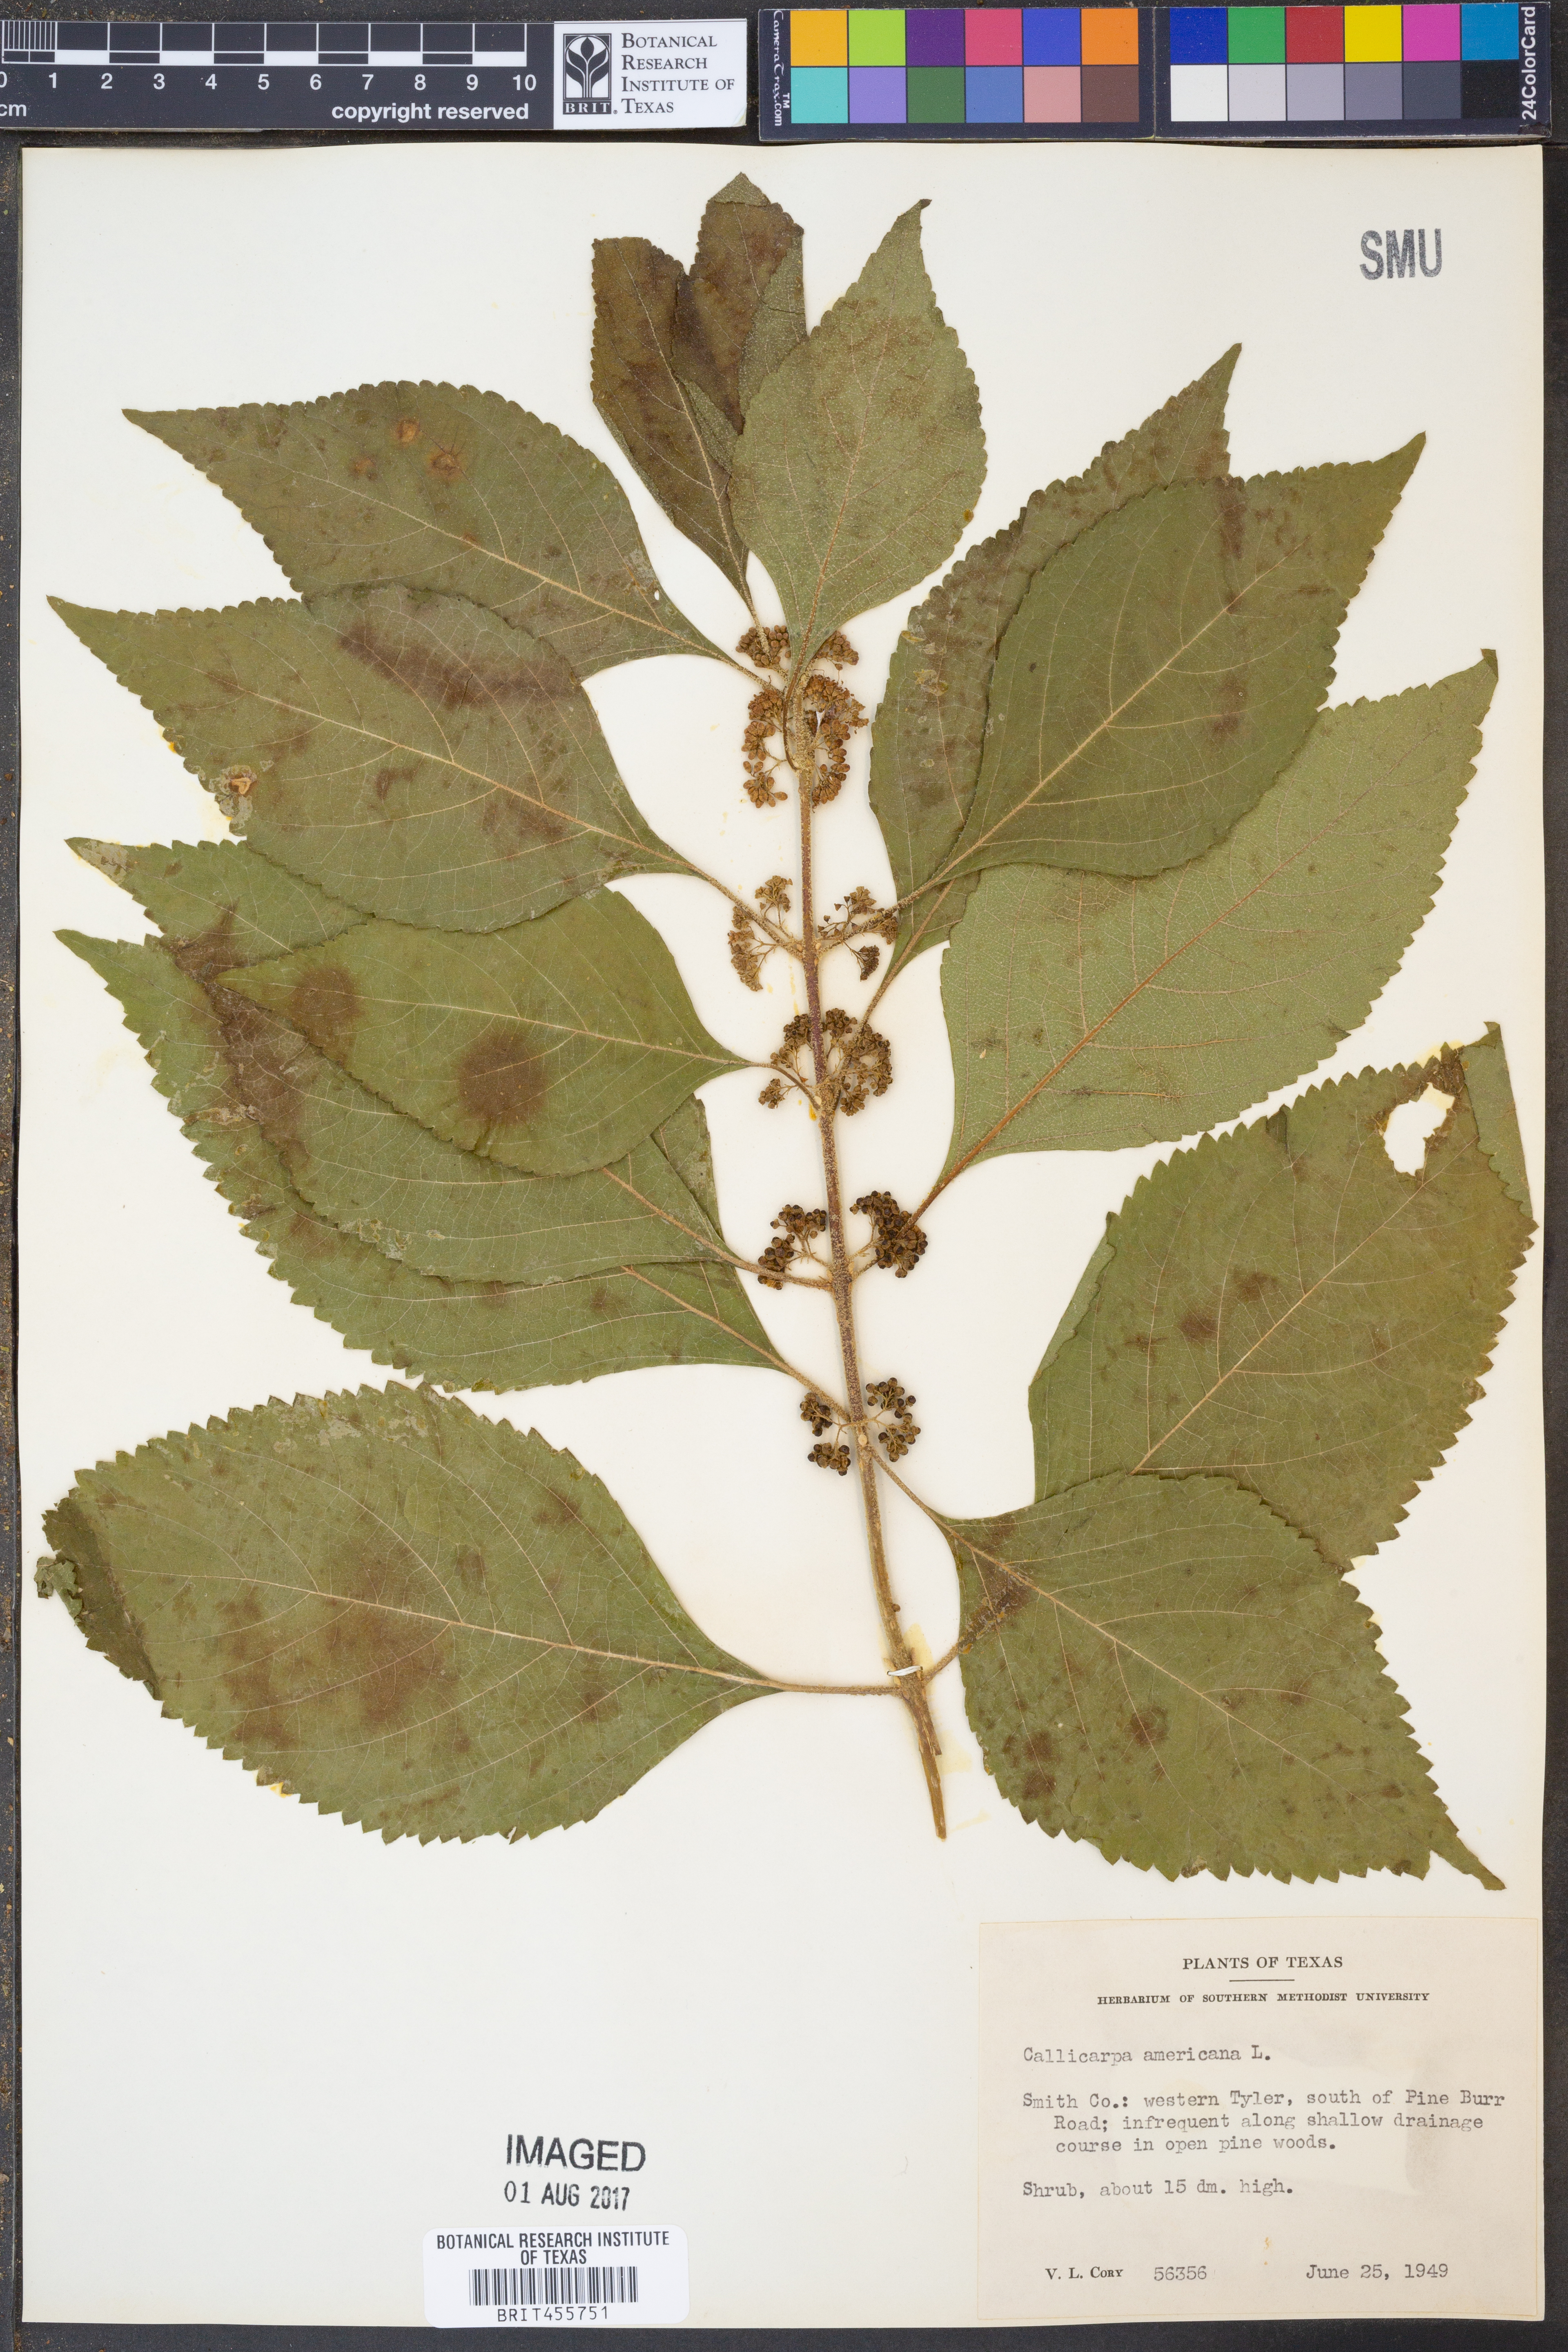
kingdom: Plantae
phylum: Tracheophyta
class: Magnoliopsida
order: Lamiales
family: Lamiaceae
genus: Callicarpa
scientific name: Callicarpa americana
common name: American beautyberry
